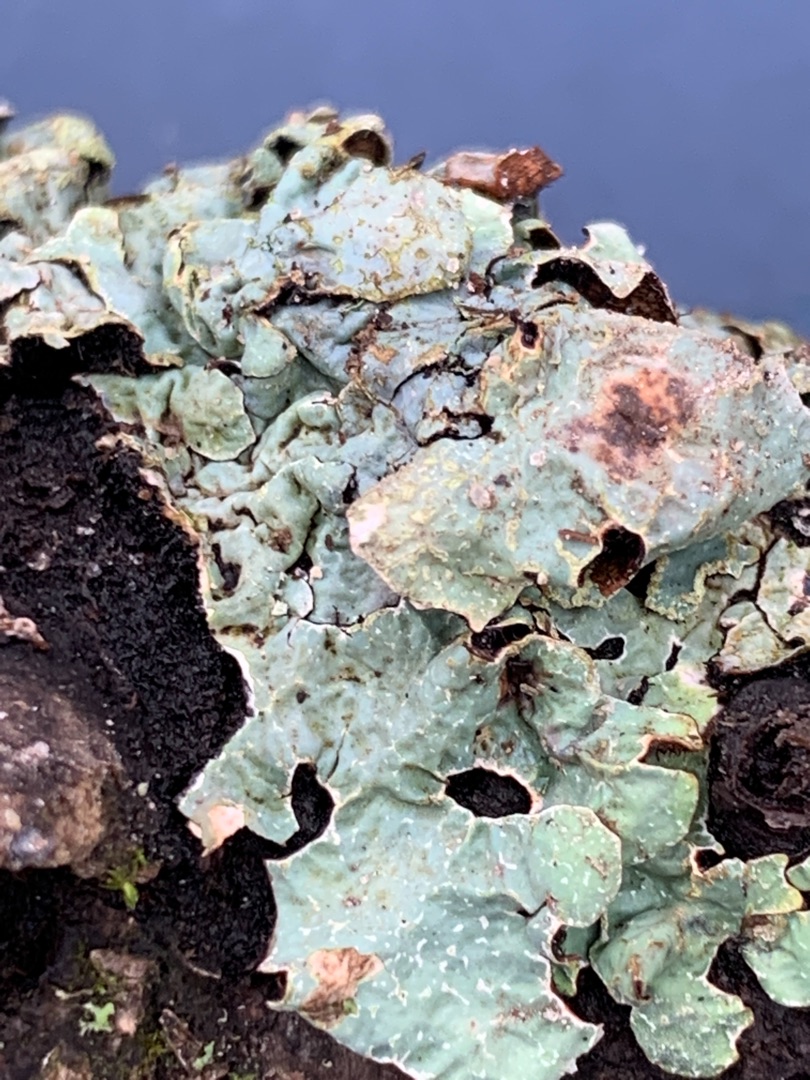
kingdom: Fungi
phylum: Ascomycota
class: Lecanoromycetes
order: Lecanorales
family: Parmeliaceae
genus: Parmelia
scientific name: Parmelia sulcata
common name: Rynket skållav
